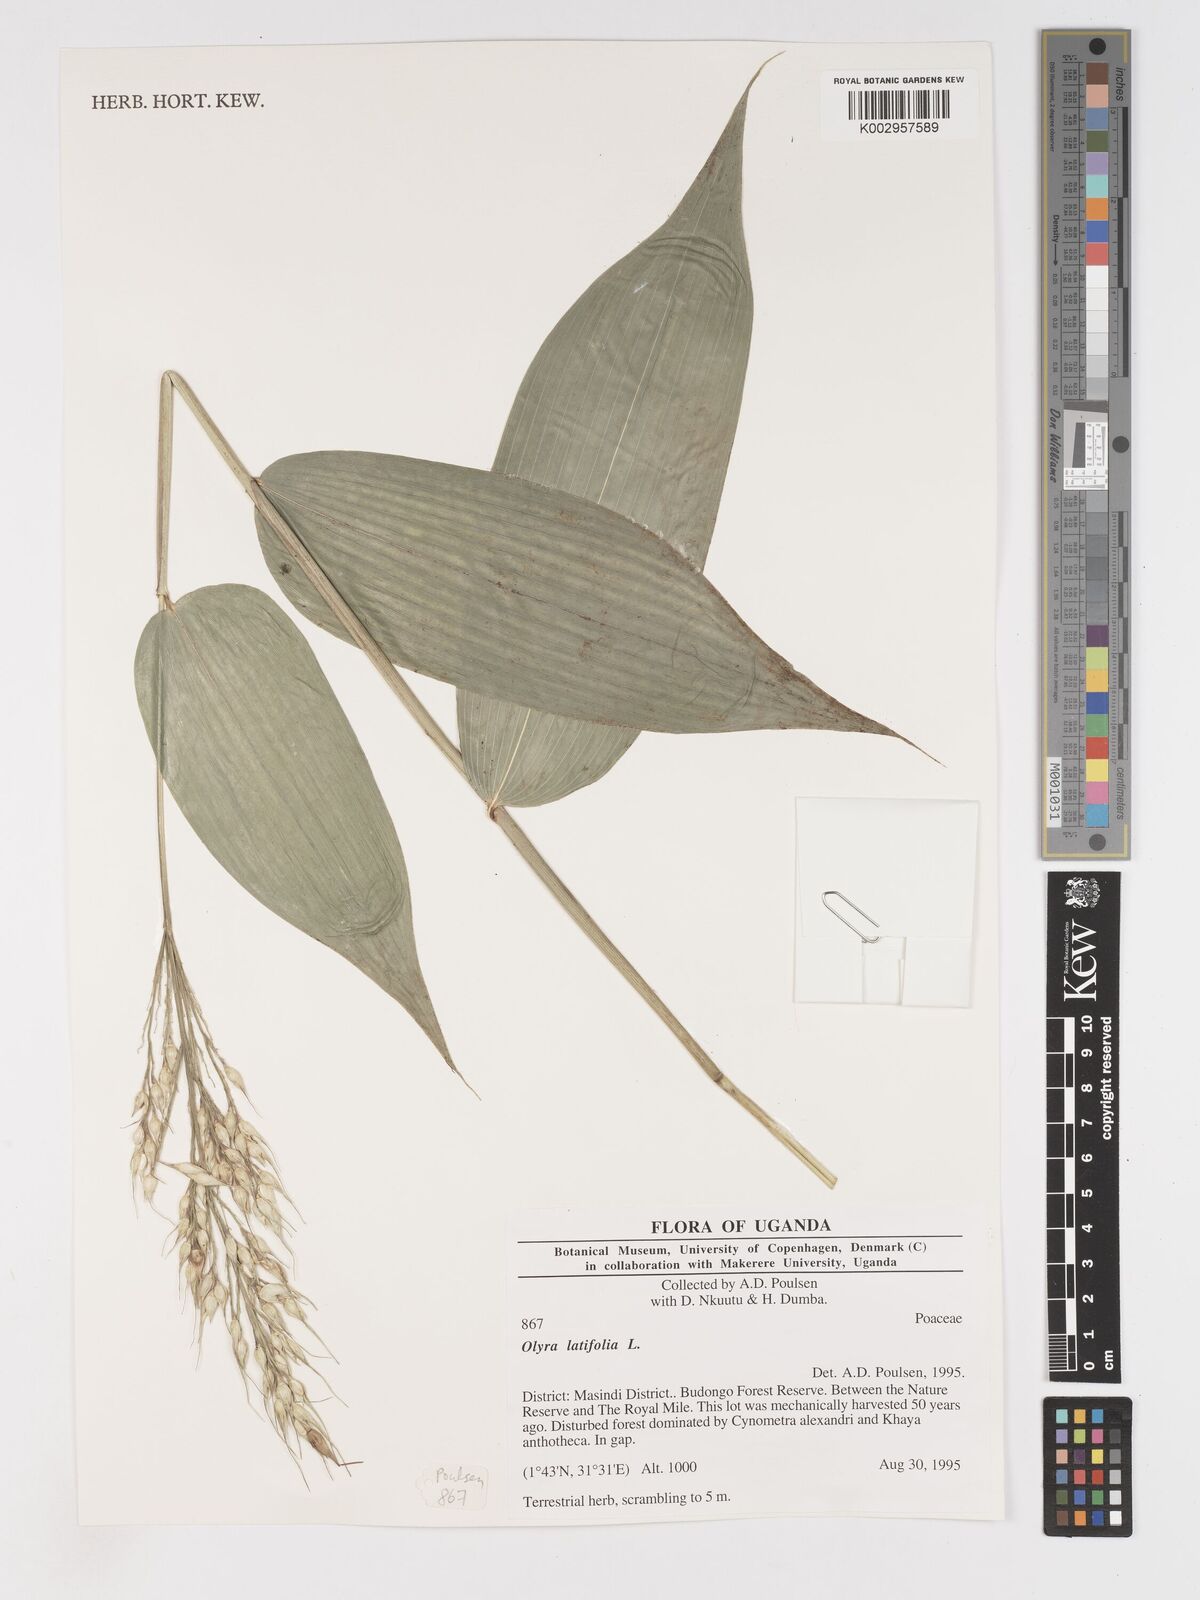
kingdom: Plantae
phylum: Tracheophyta
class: Liliopsida
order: Poales
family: Poaceae
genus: Olyra
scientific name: Olyra latifolia
